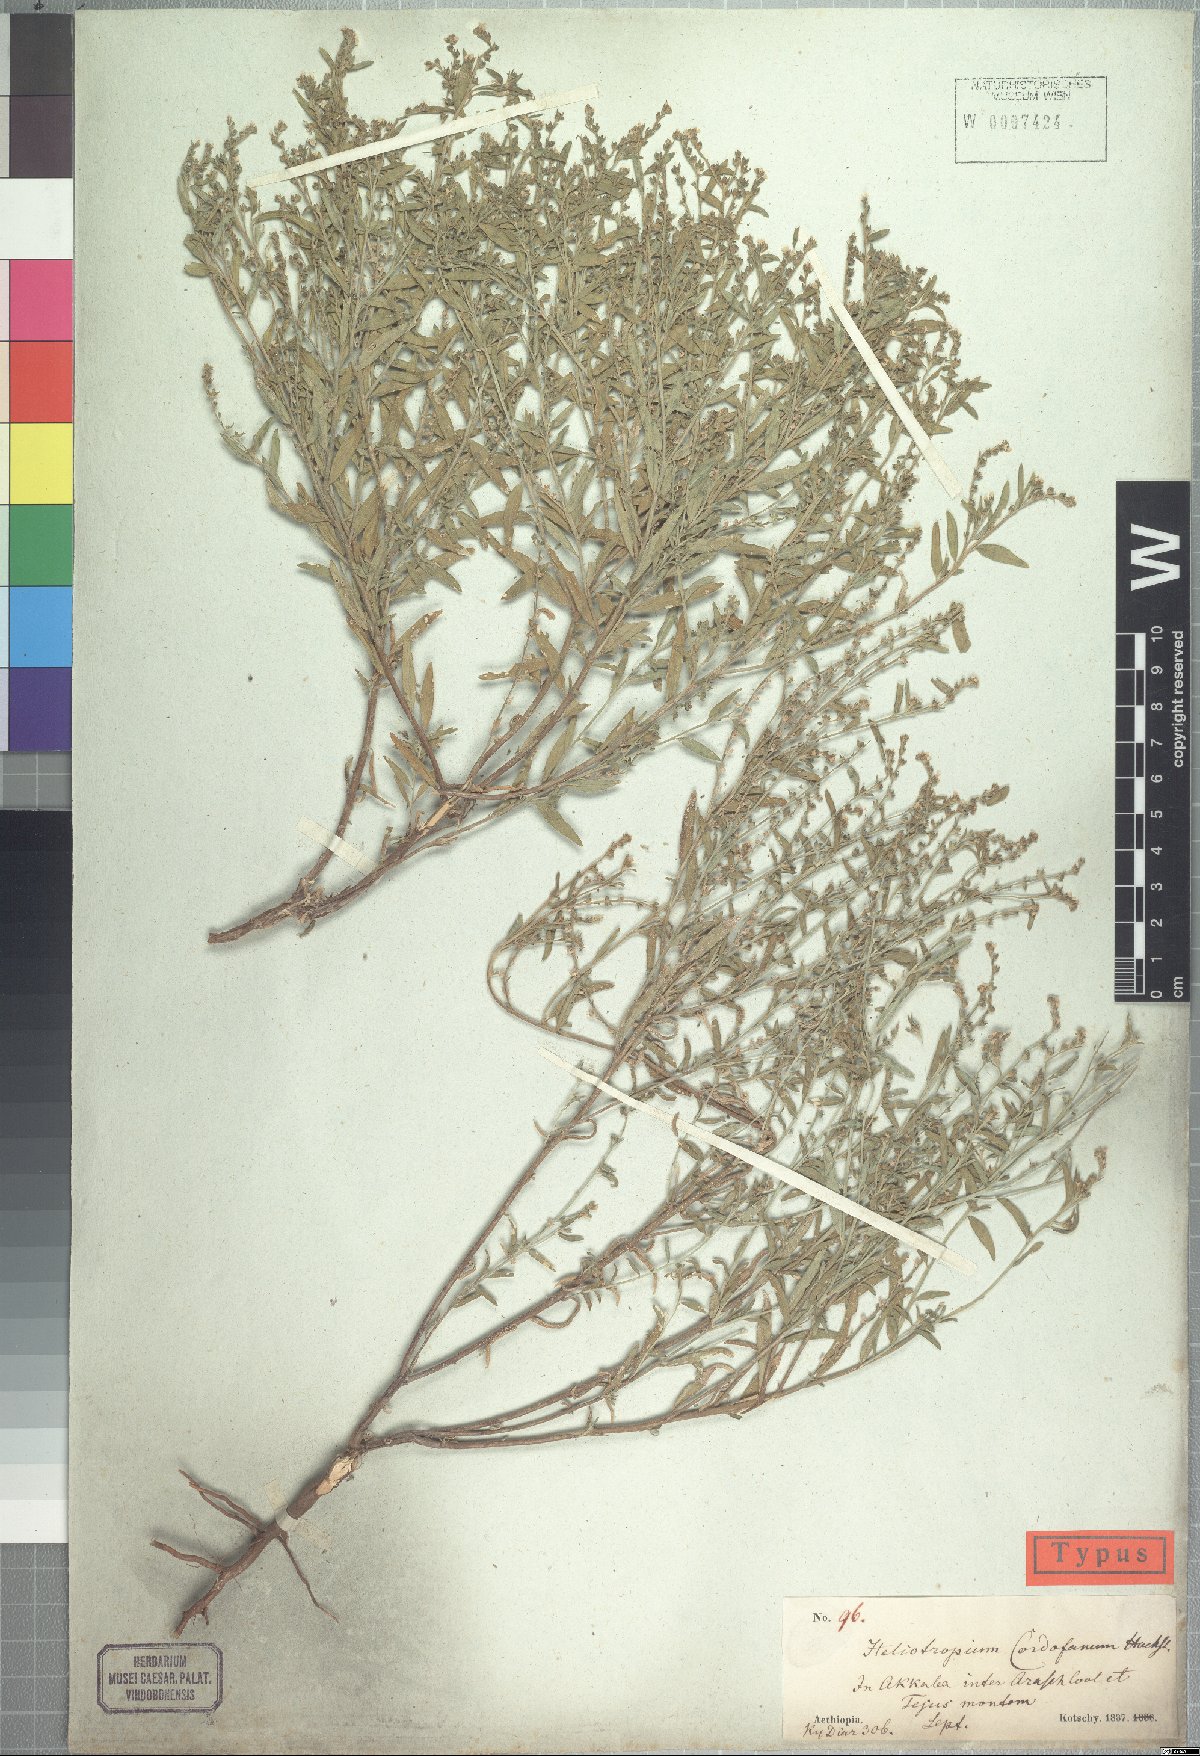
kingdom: Plantae
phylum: Tracheophyta
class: Magnoliopsida
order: Boraginales
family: Heliotropiaceae
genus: Euploca
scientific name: Euploca strigosa
